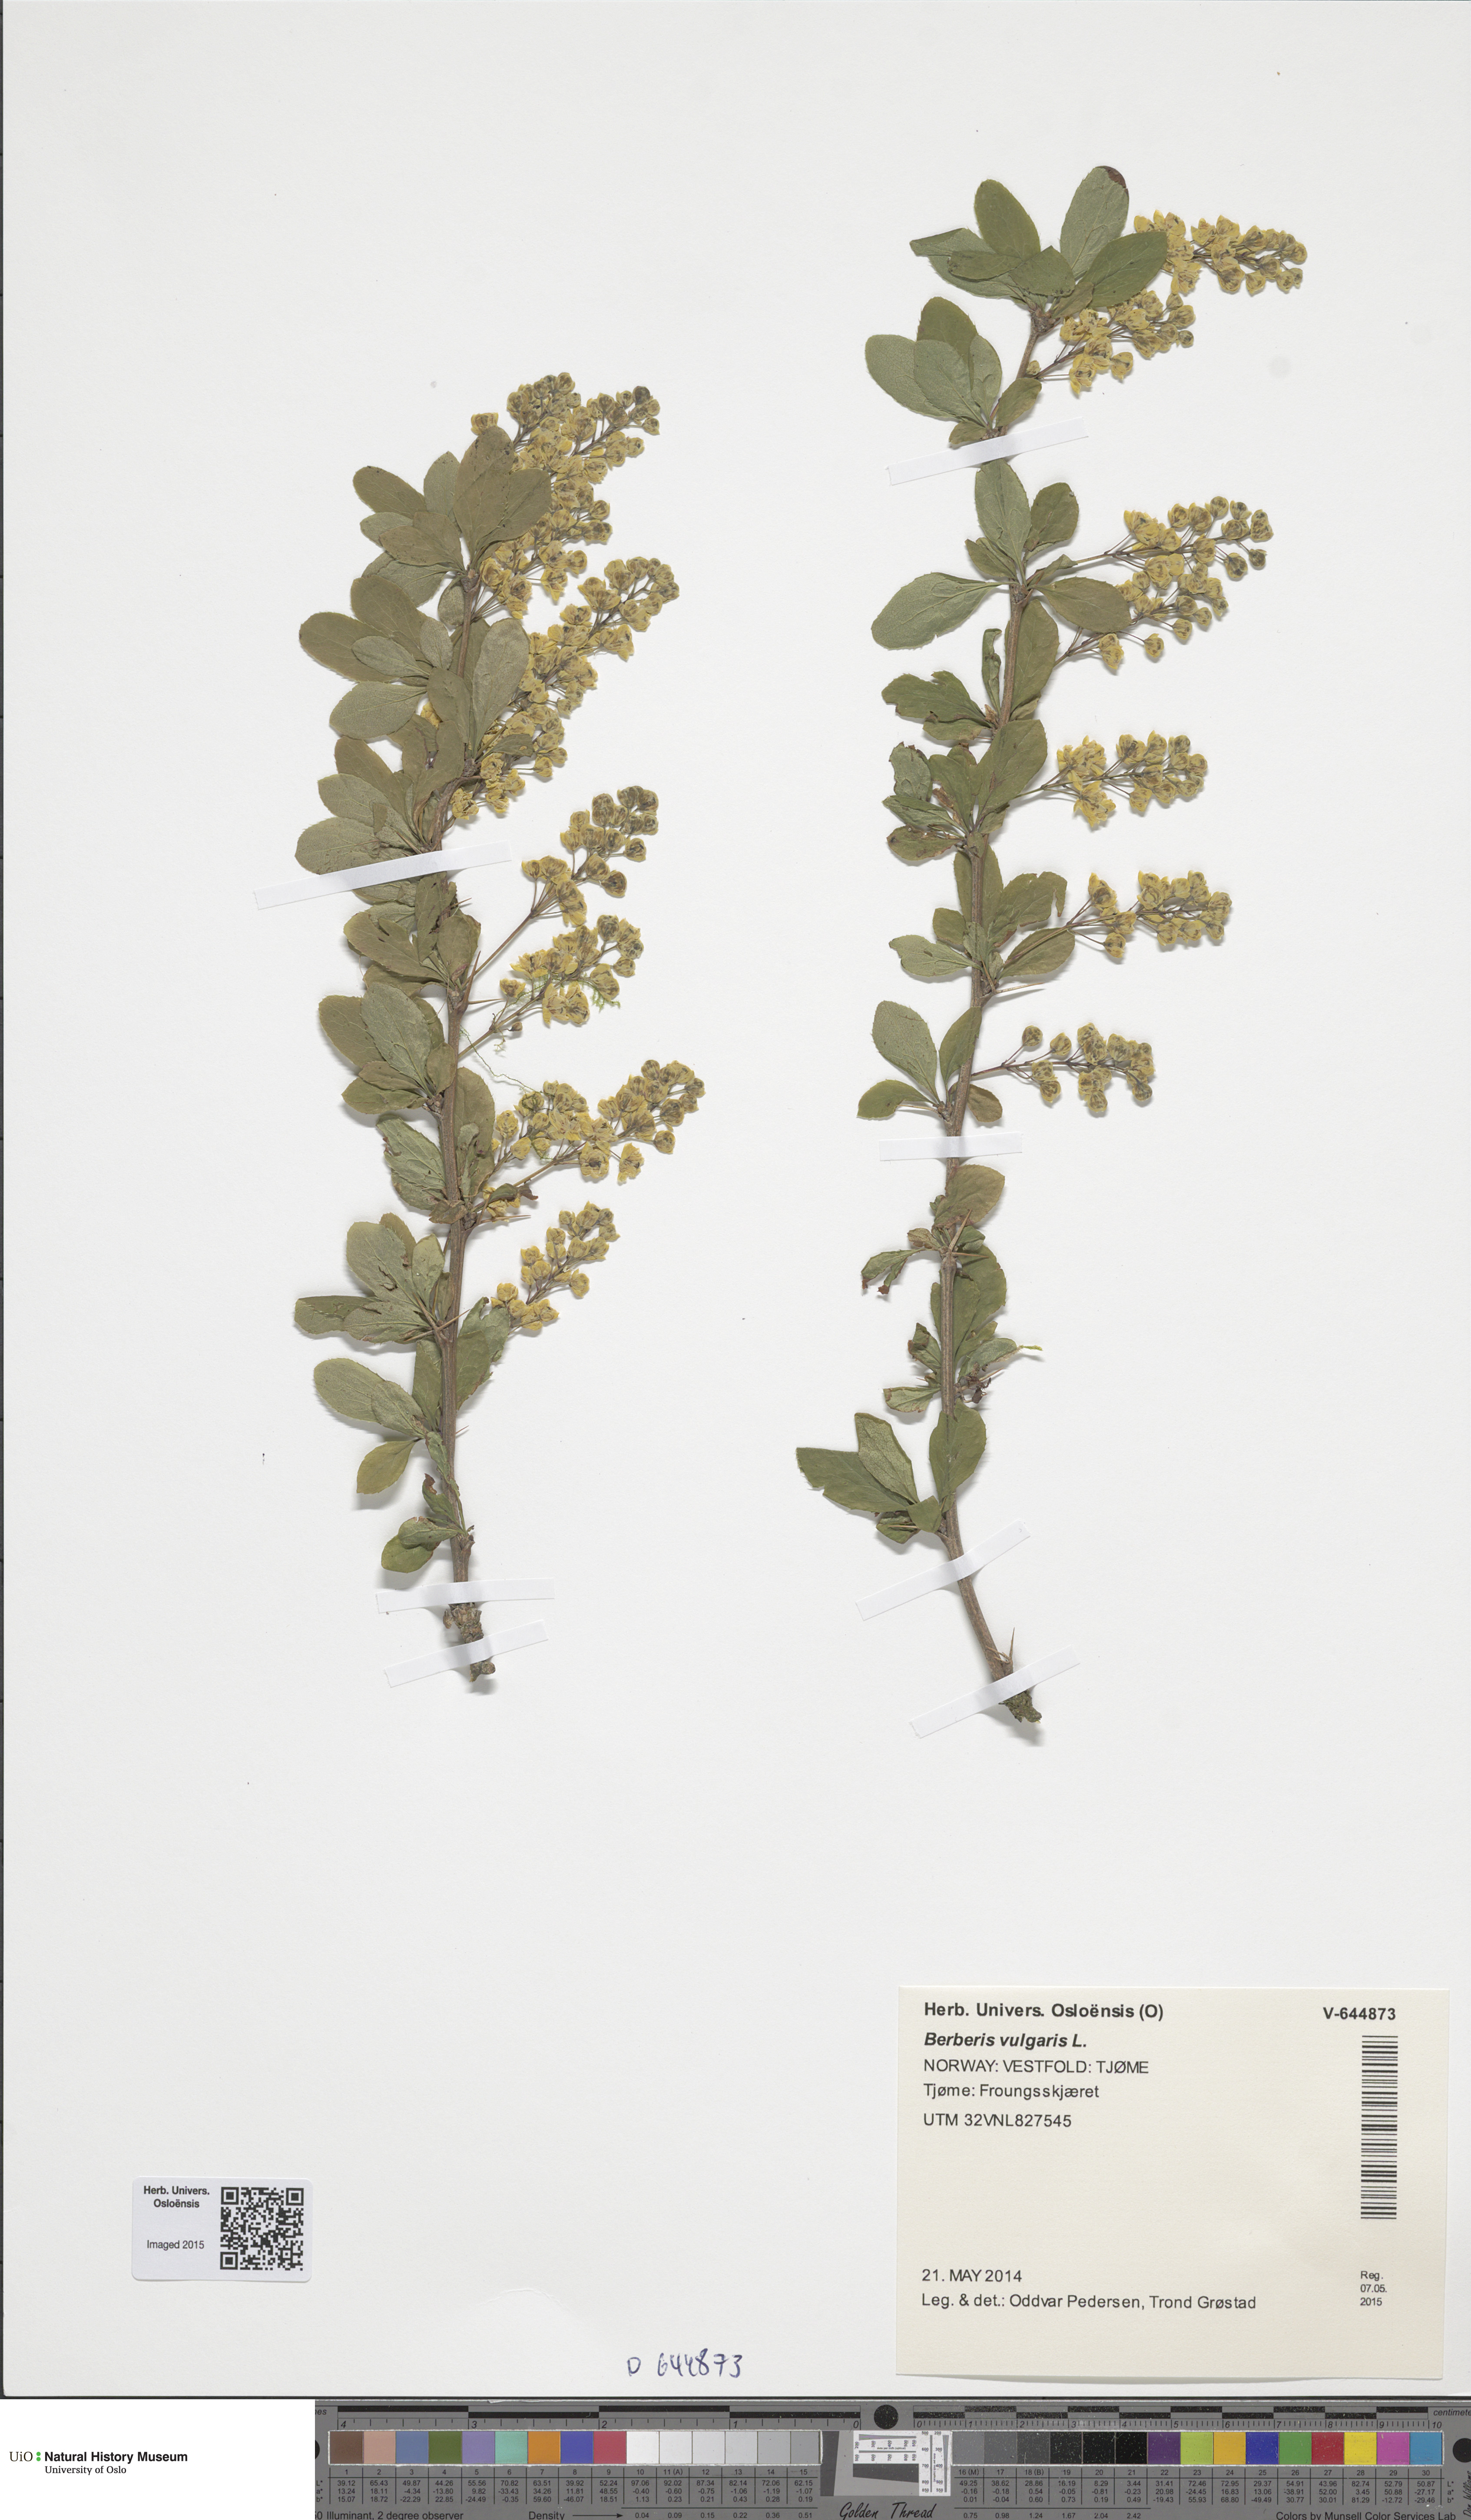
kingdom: Plantae
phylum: Tracheophyta
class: Magnoliopsida
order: Ranunculales
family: Berberidaceae
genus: Berberis
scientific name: Berberis vulgaris
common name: Barberry
